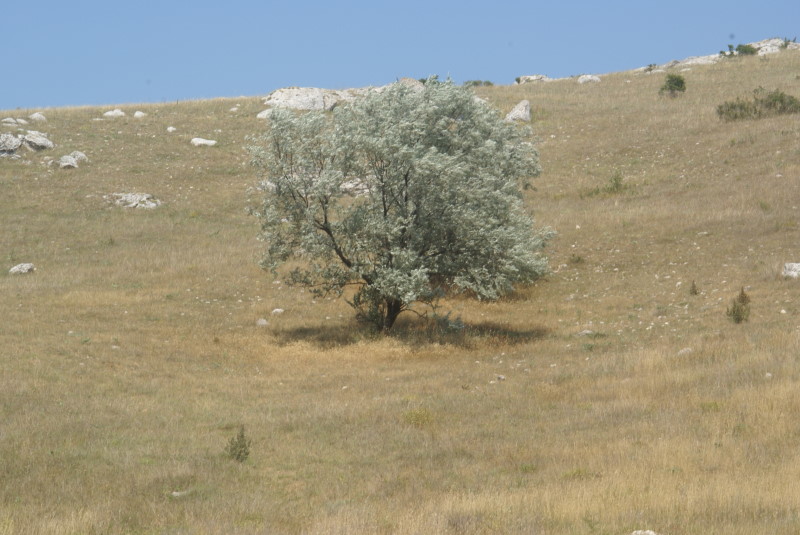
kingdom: Plantae
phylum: Tracheophyta
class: Magnoliopsida
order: Rosales
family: Elaeagnaceae
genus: Elaeagnus
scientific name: Elaeagnus commutata
